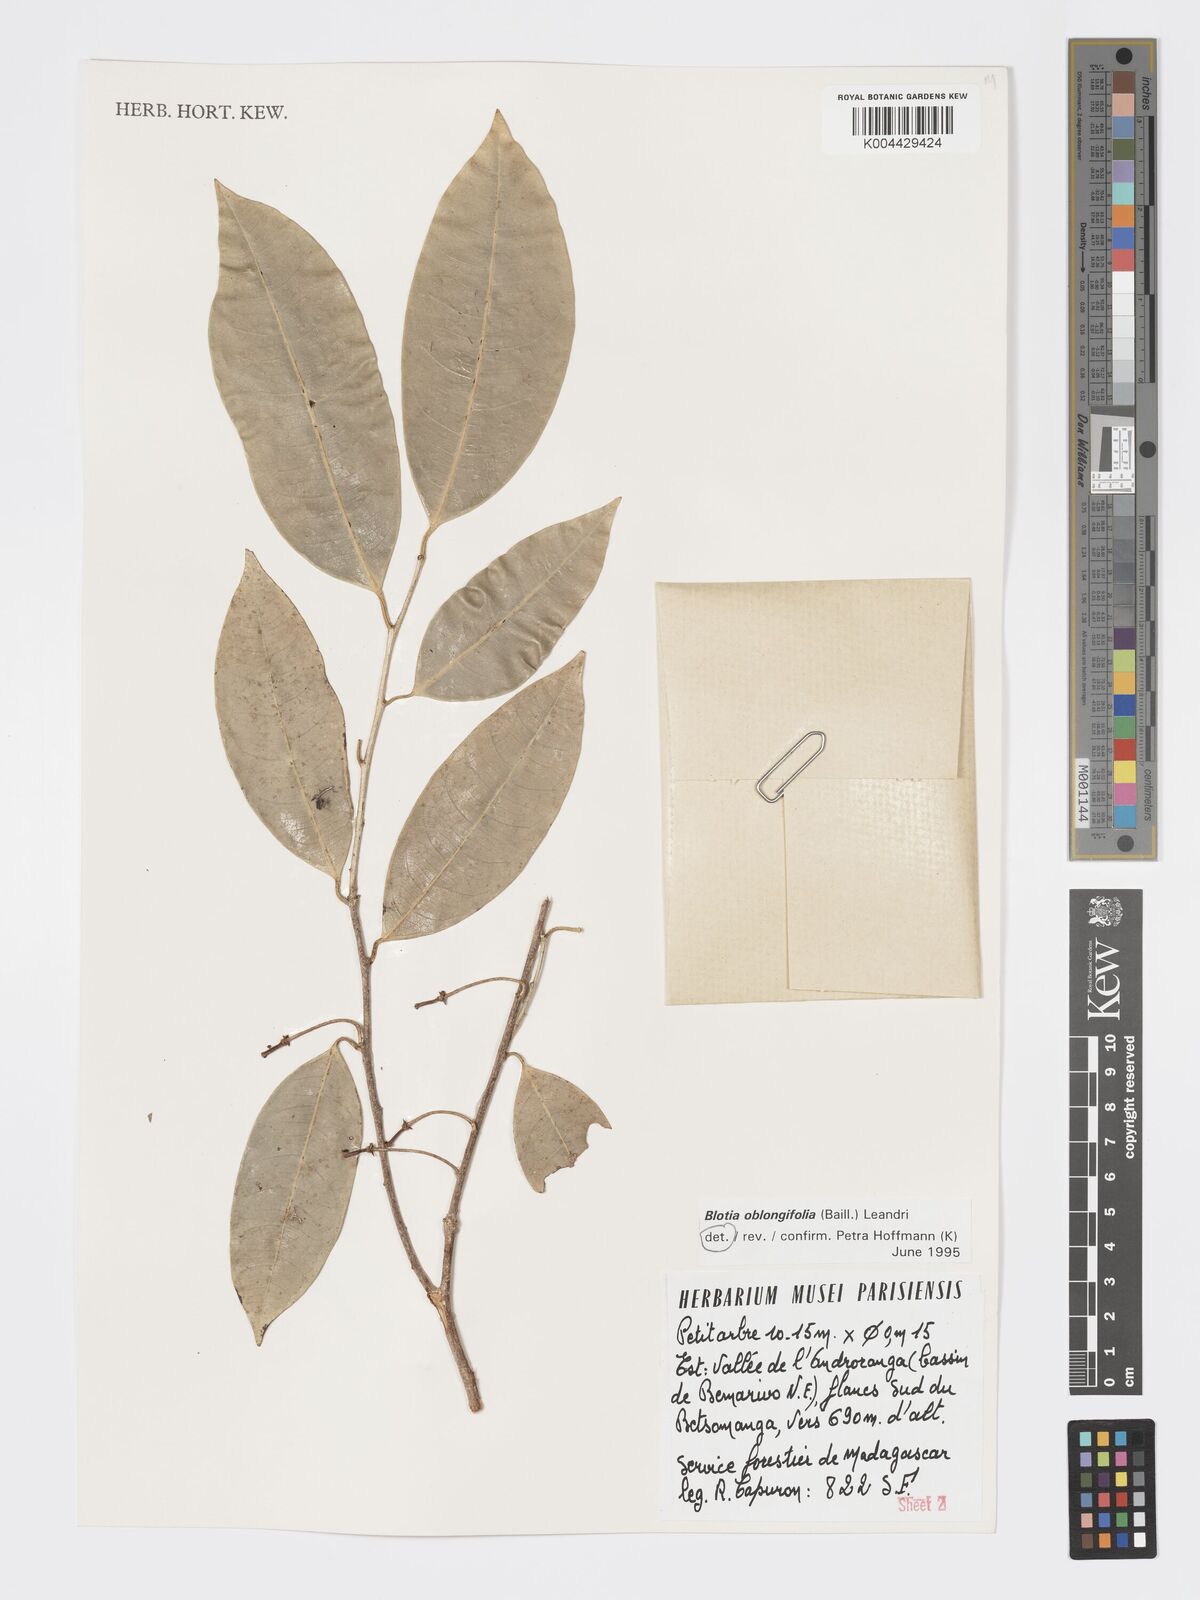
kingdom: Plantae
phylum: Tracheophyta
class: Magnoliopsida
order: Malpighiales
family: Phyllanthaceae
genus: Wielandia
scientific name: Wielandia oblongifolia
